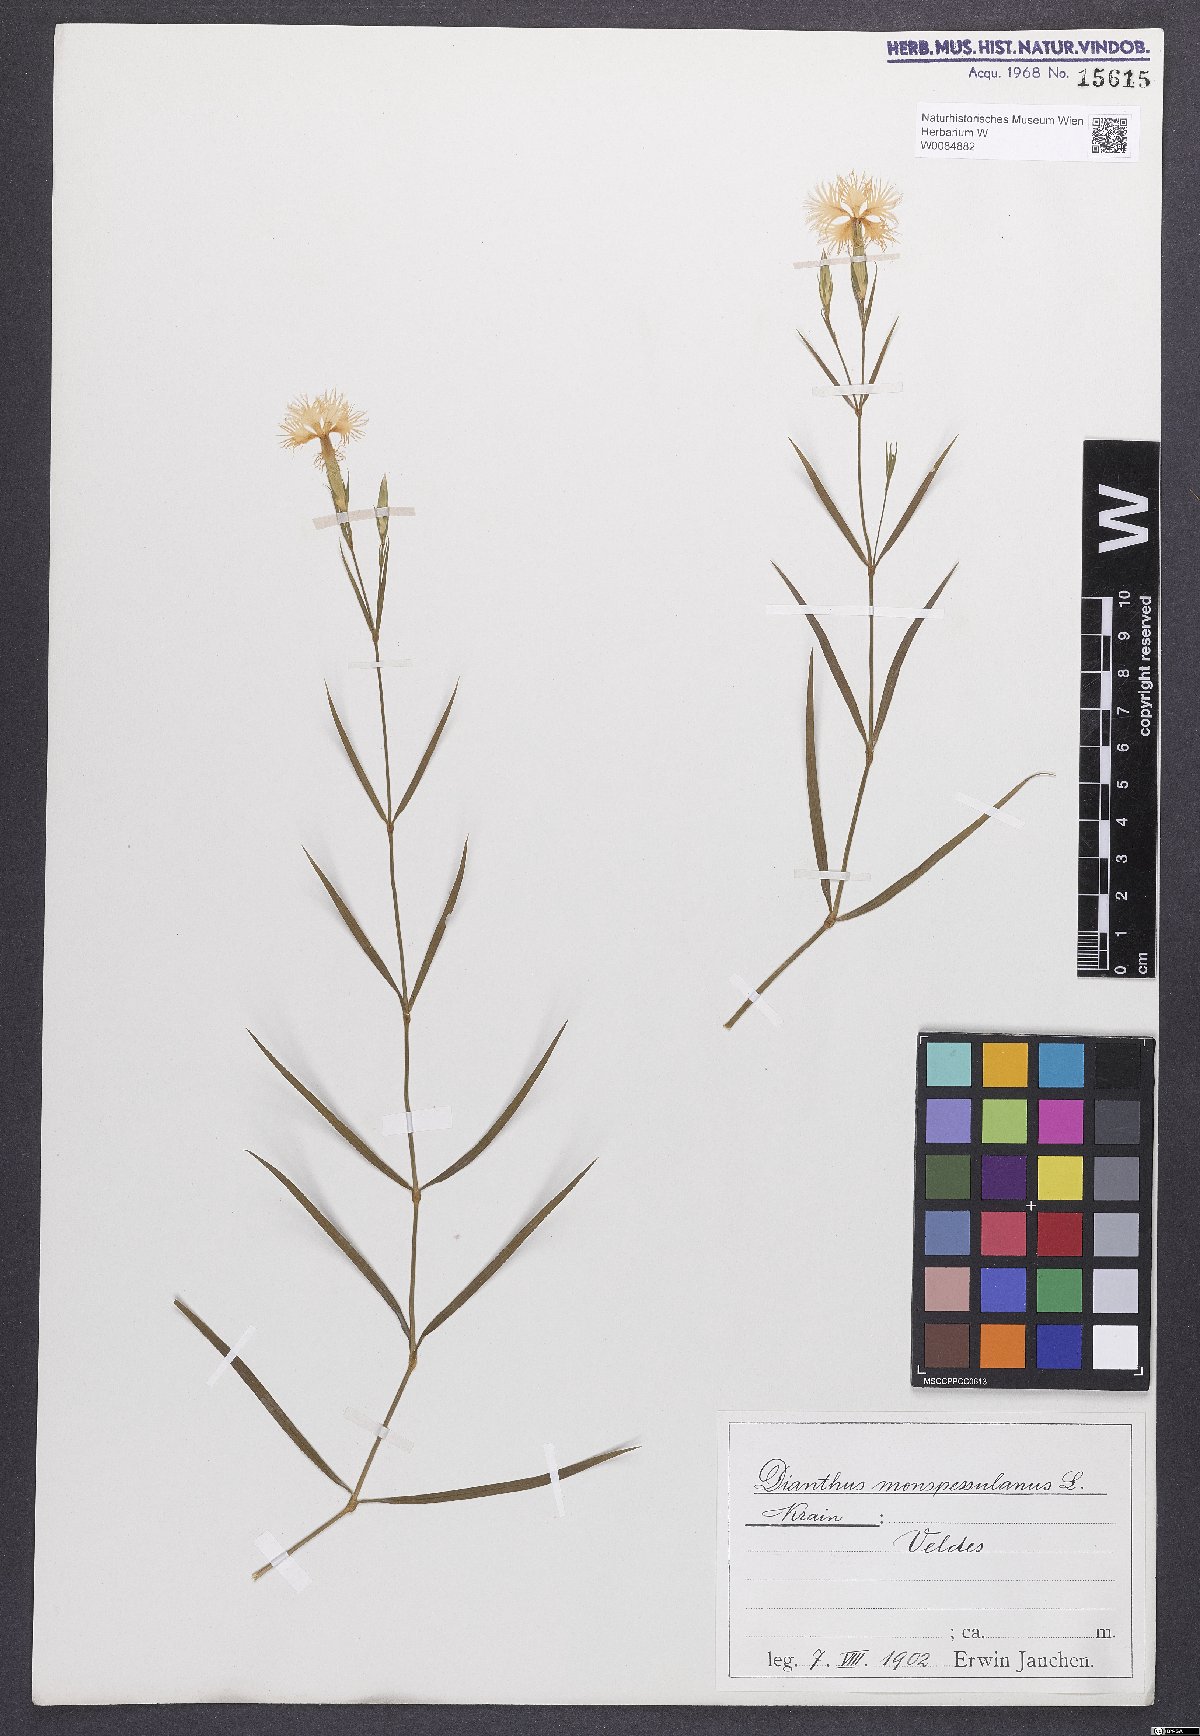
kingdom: Plantae
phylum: Tracheophyta
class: Magnoliopsida
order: Caryophyllales
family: Caryophyllaceae
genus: Dianthus
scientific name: Dianthus hyssopifolius
